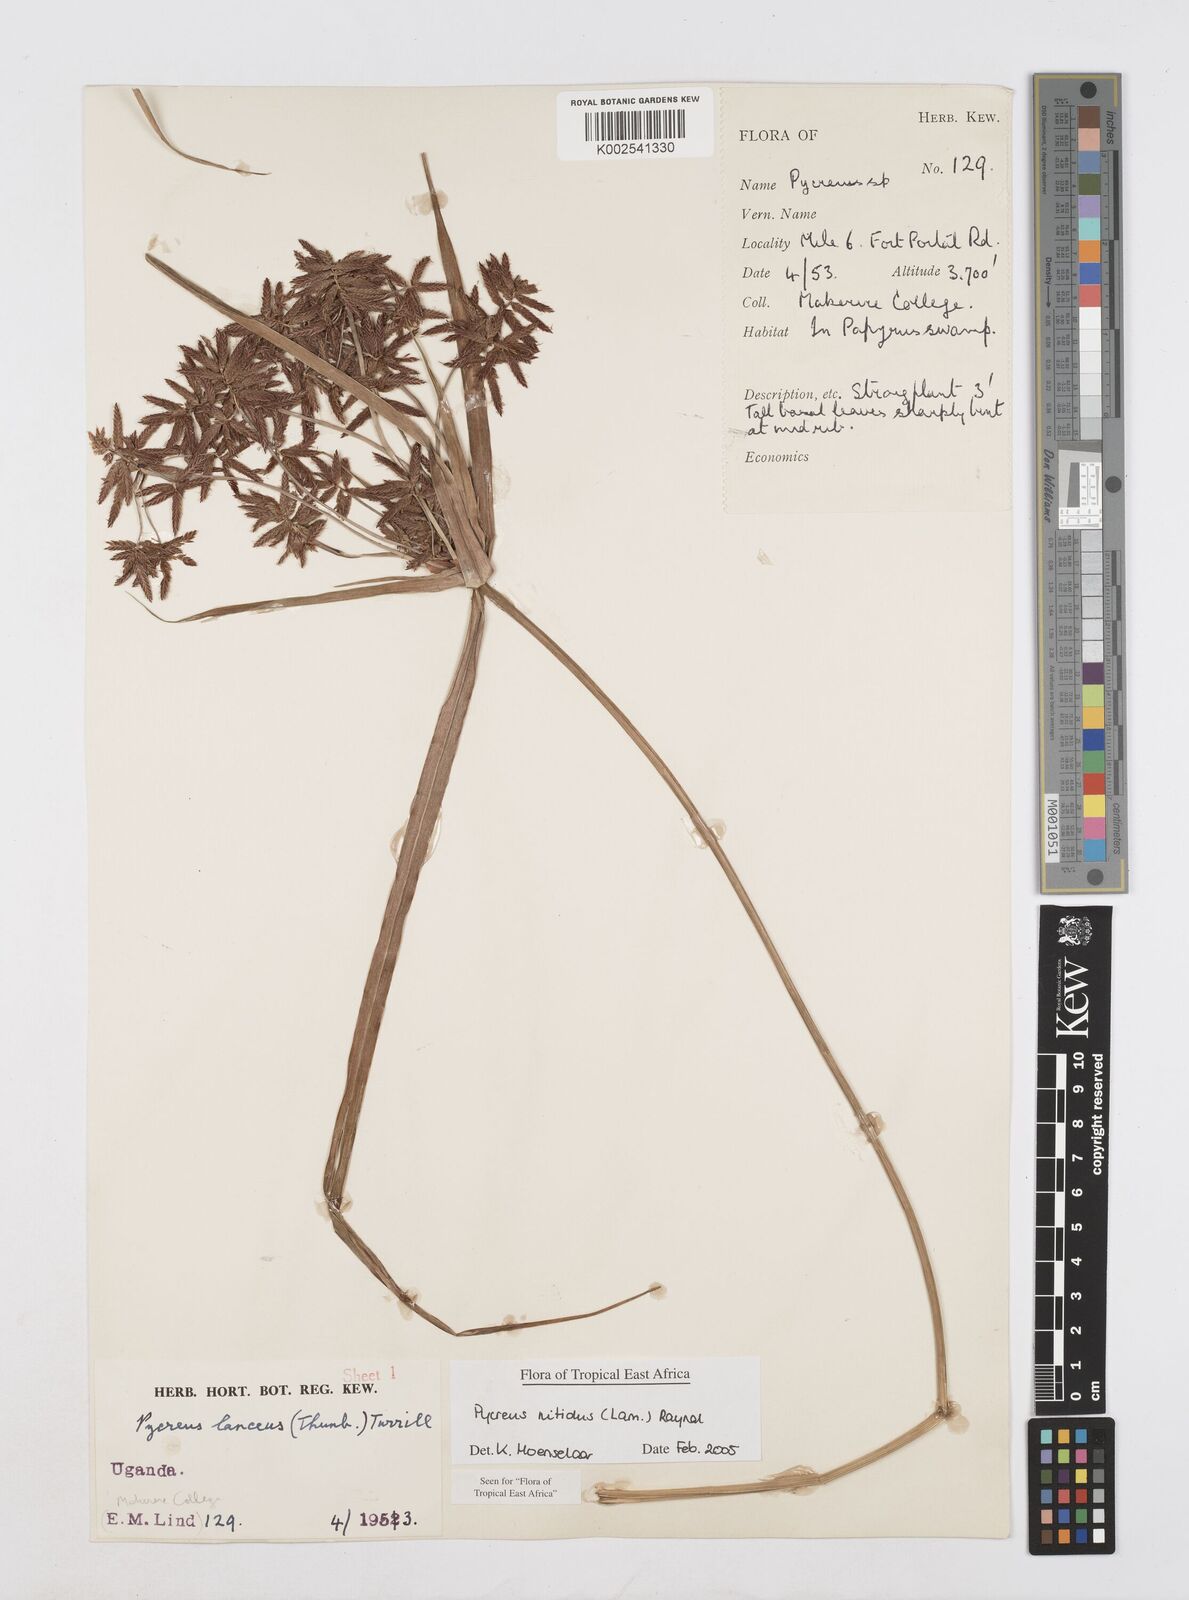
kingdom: Plantae
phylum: Tracheophyta
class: Liliopsida
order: Poales
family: Cyperaceae
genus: Cyperus
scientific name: Cyperus nitidus
